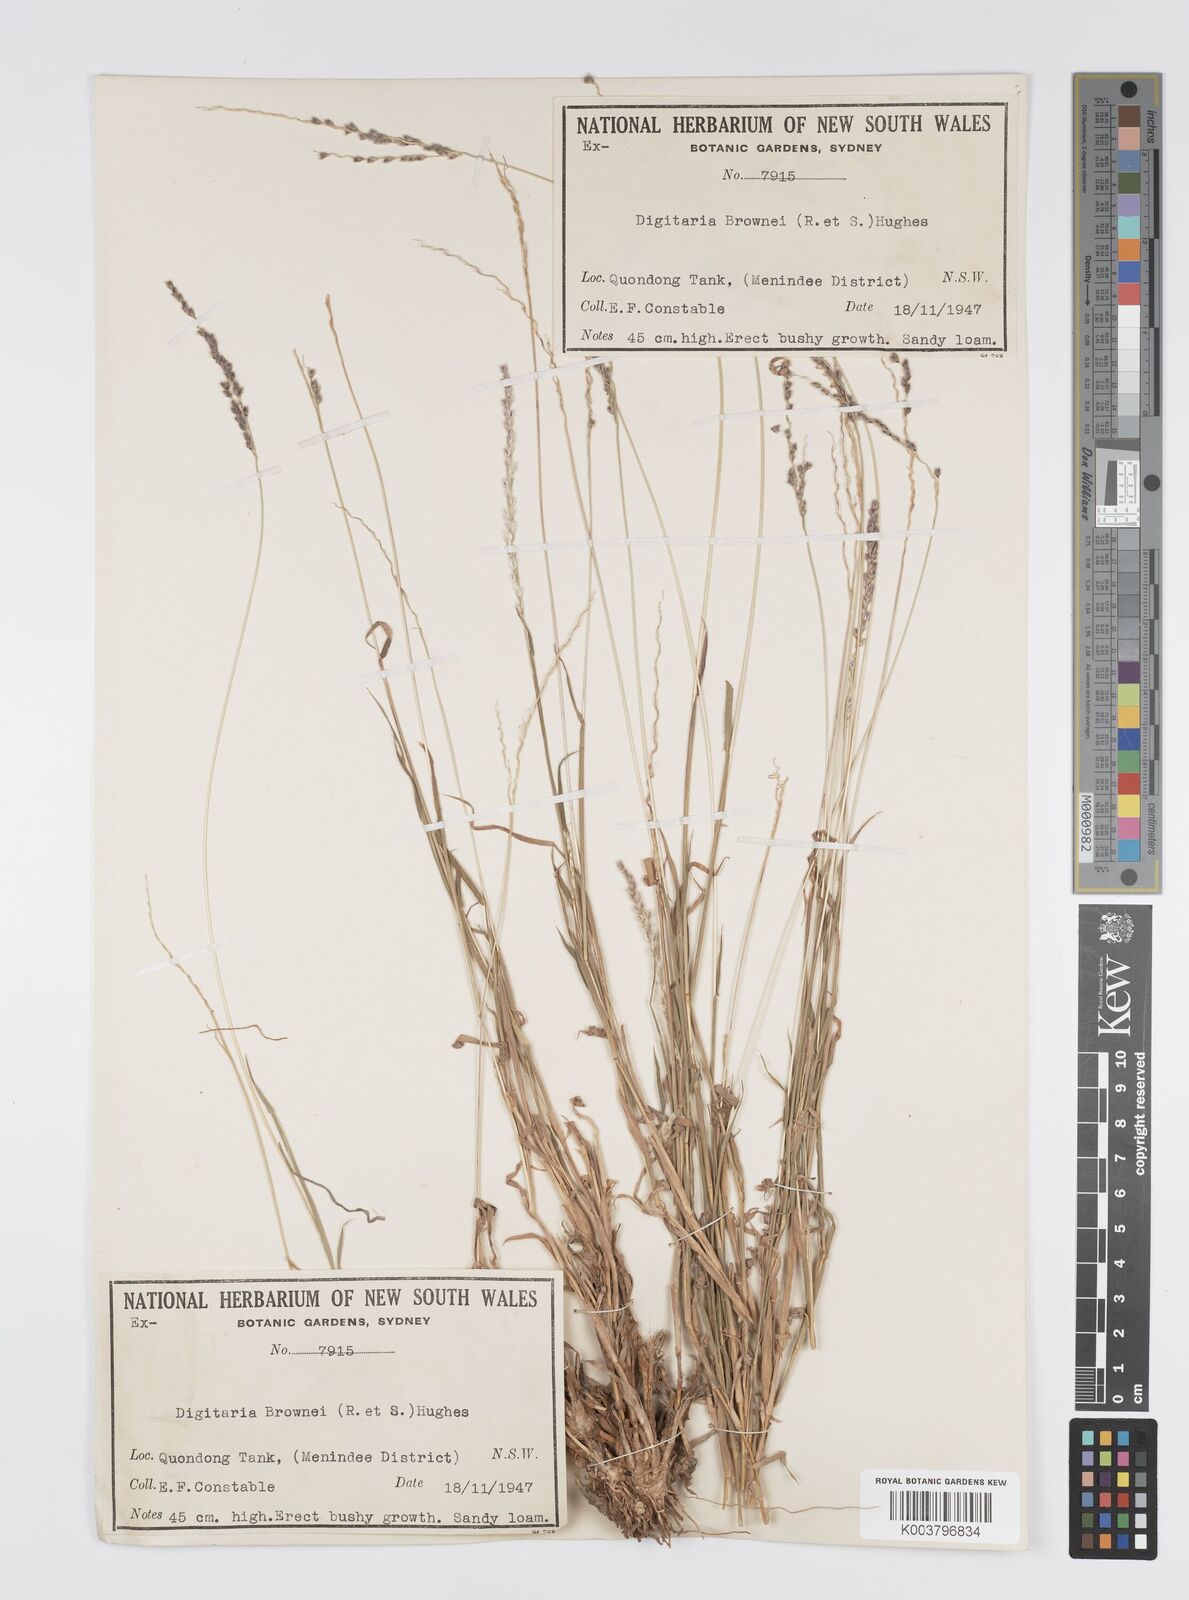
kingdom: Plantae
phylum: Tracheophyta
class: Liliopsida
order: Poales
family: Poaceae
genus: Digitaria
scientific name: Digitaria brownii
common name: Cotton grass
